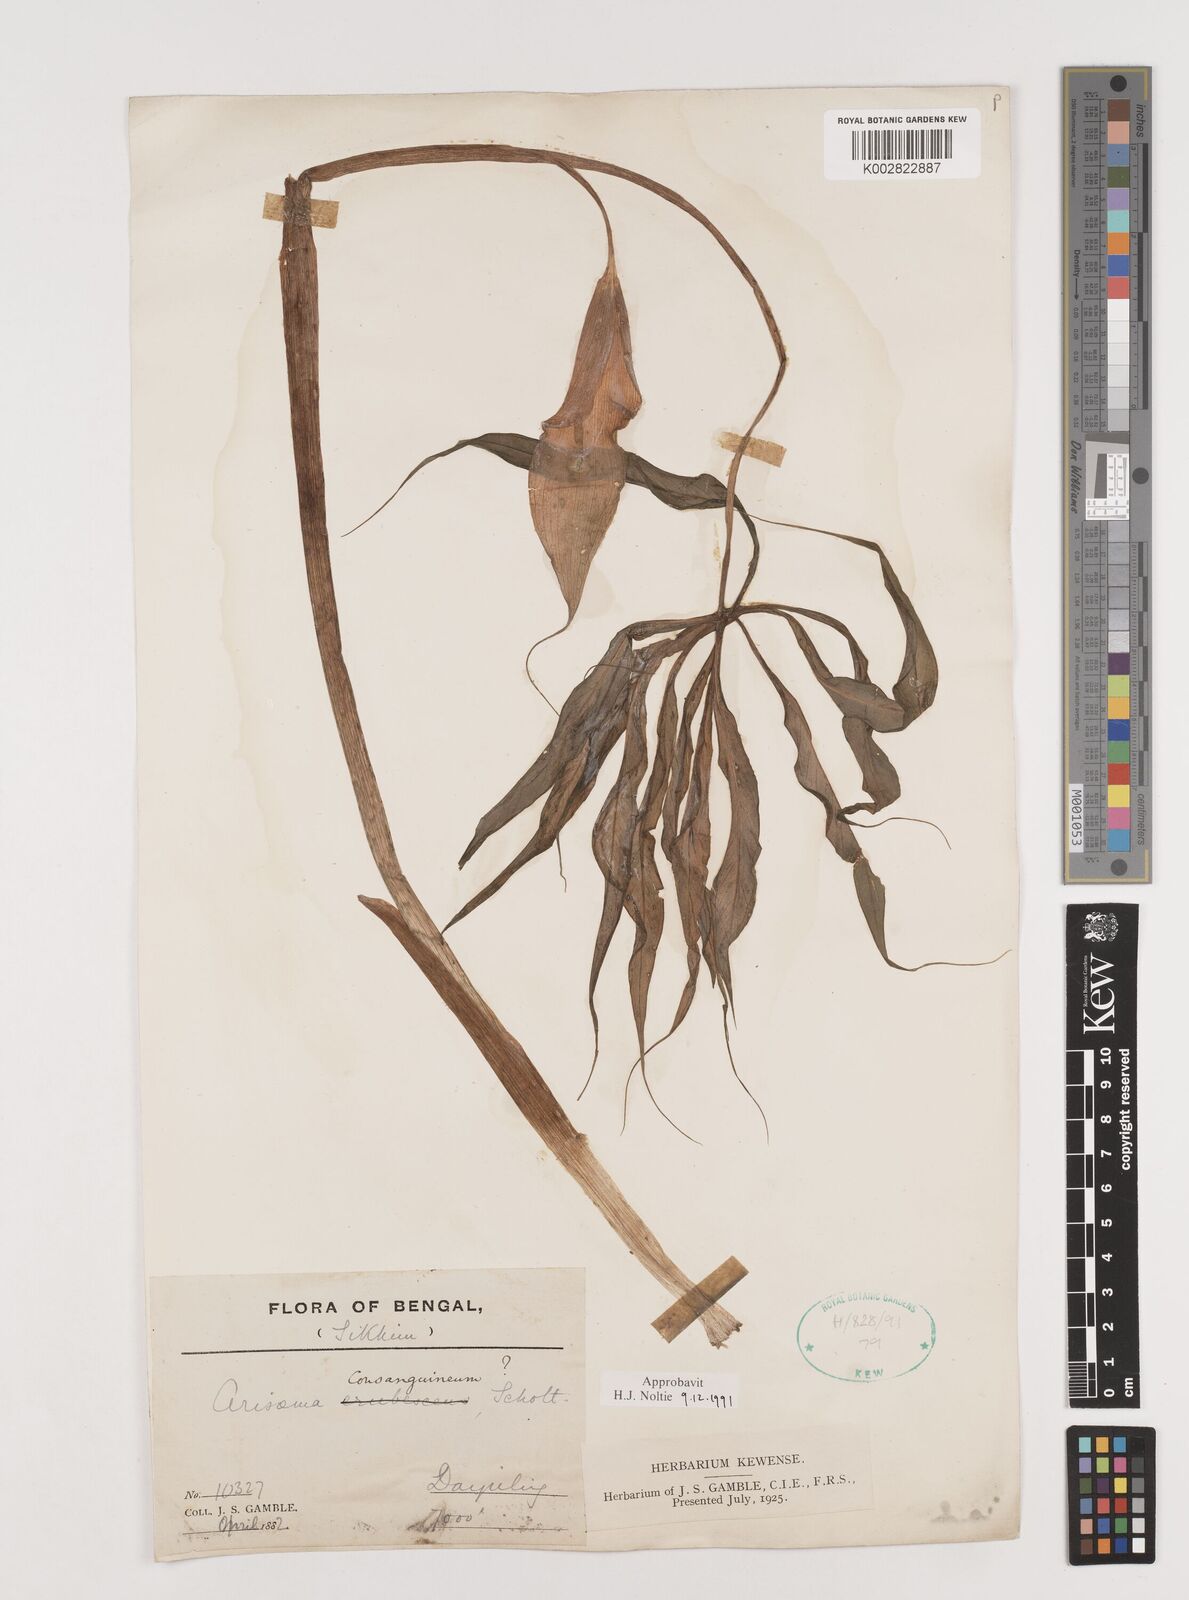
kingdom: Plantae
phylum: Tracheophyta
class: Liliopsida
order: Alismatales
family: Araceae
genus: Arisaema
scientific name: Arisaema erubescens
